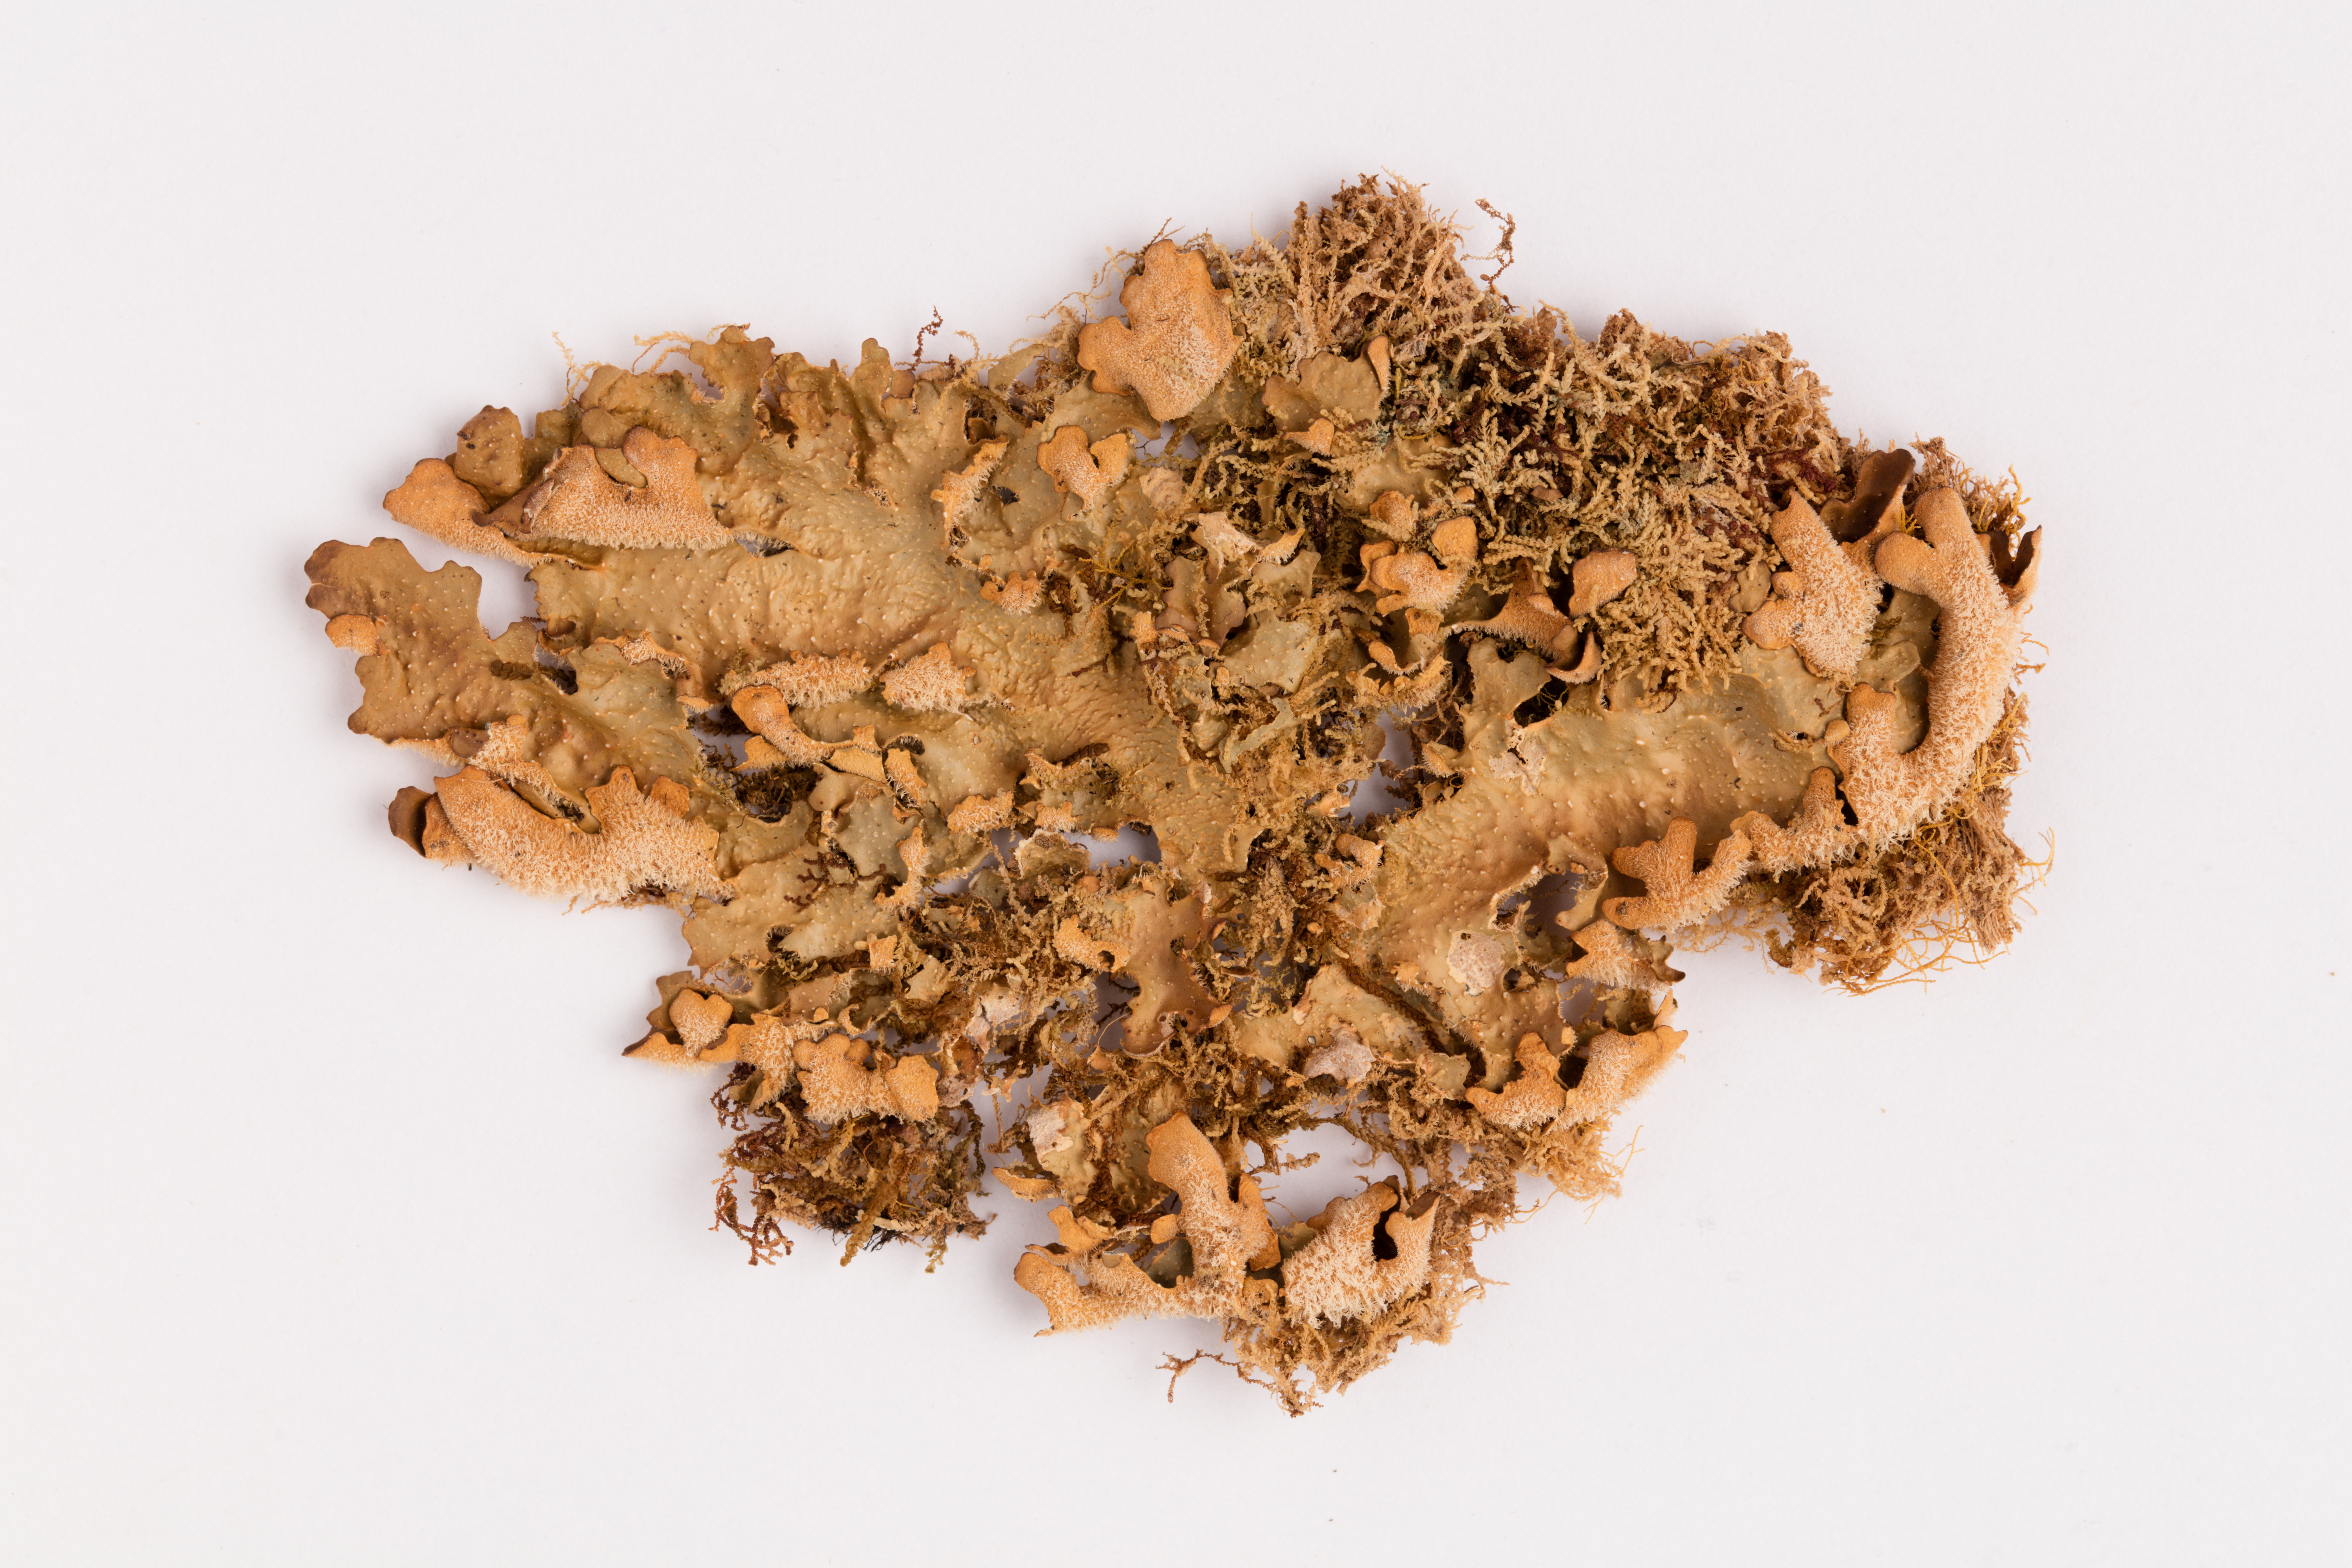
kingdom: Fungi
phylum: Ascomycota
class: Lecanoromycetes
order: Peltigerales
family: Lobariaceae
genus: Pseudocyphellaria
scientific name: Pseudocyphellaria argyracea
